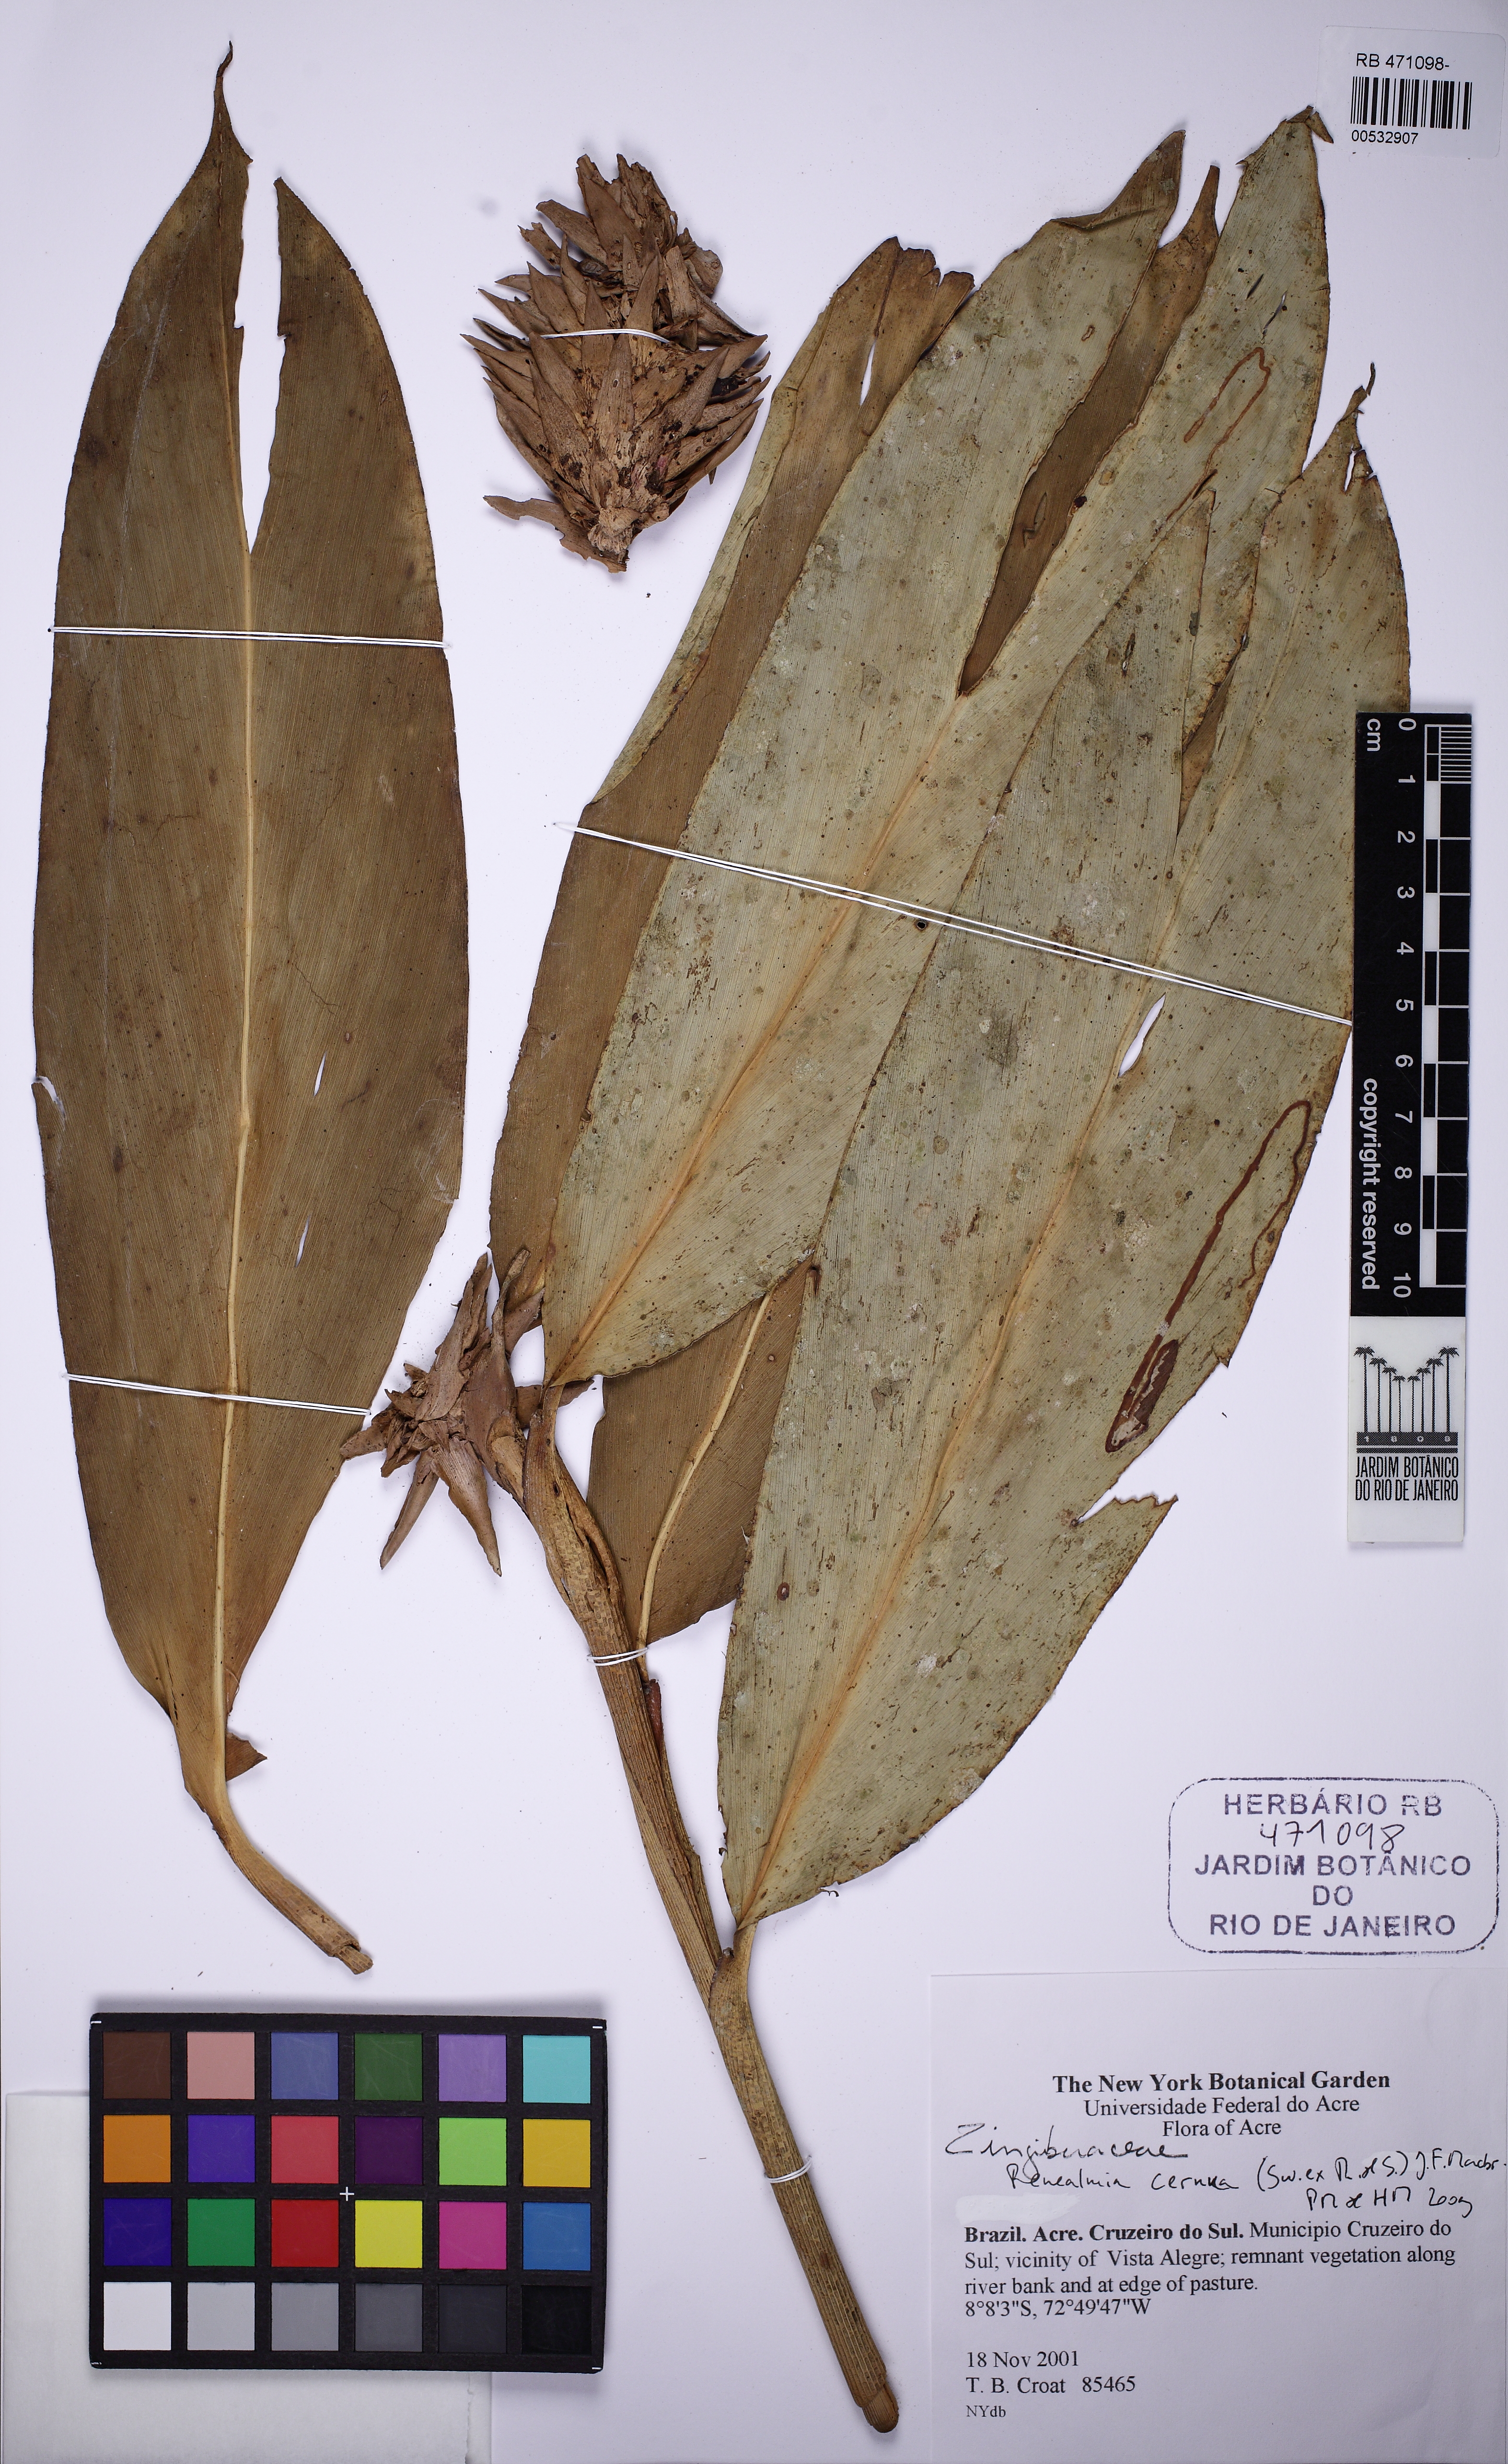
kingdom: Plantae
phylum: Tracheophyta
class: Liliopsida
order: Zingiberales
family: Zingiberaceae
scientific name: Zingiberaceae
